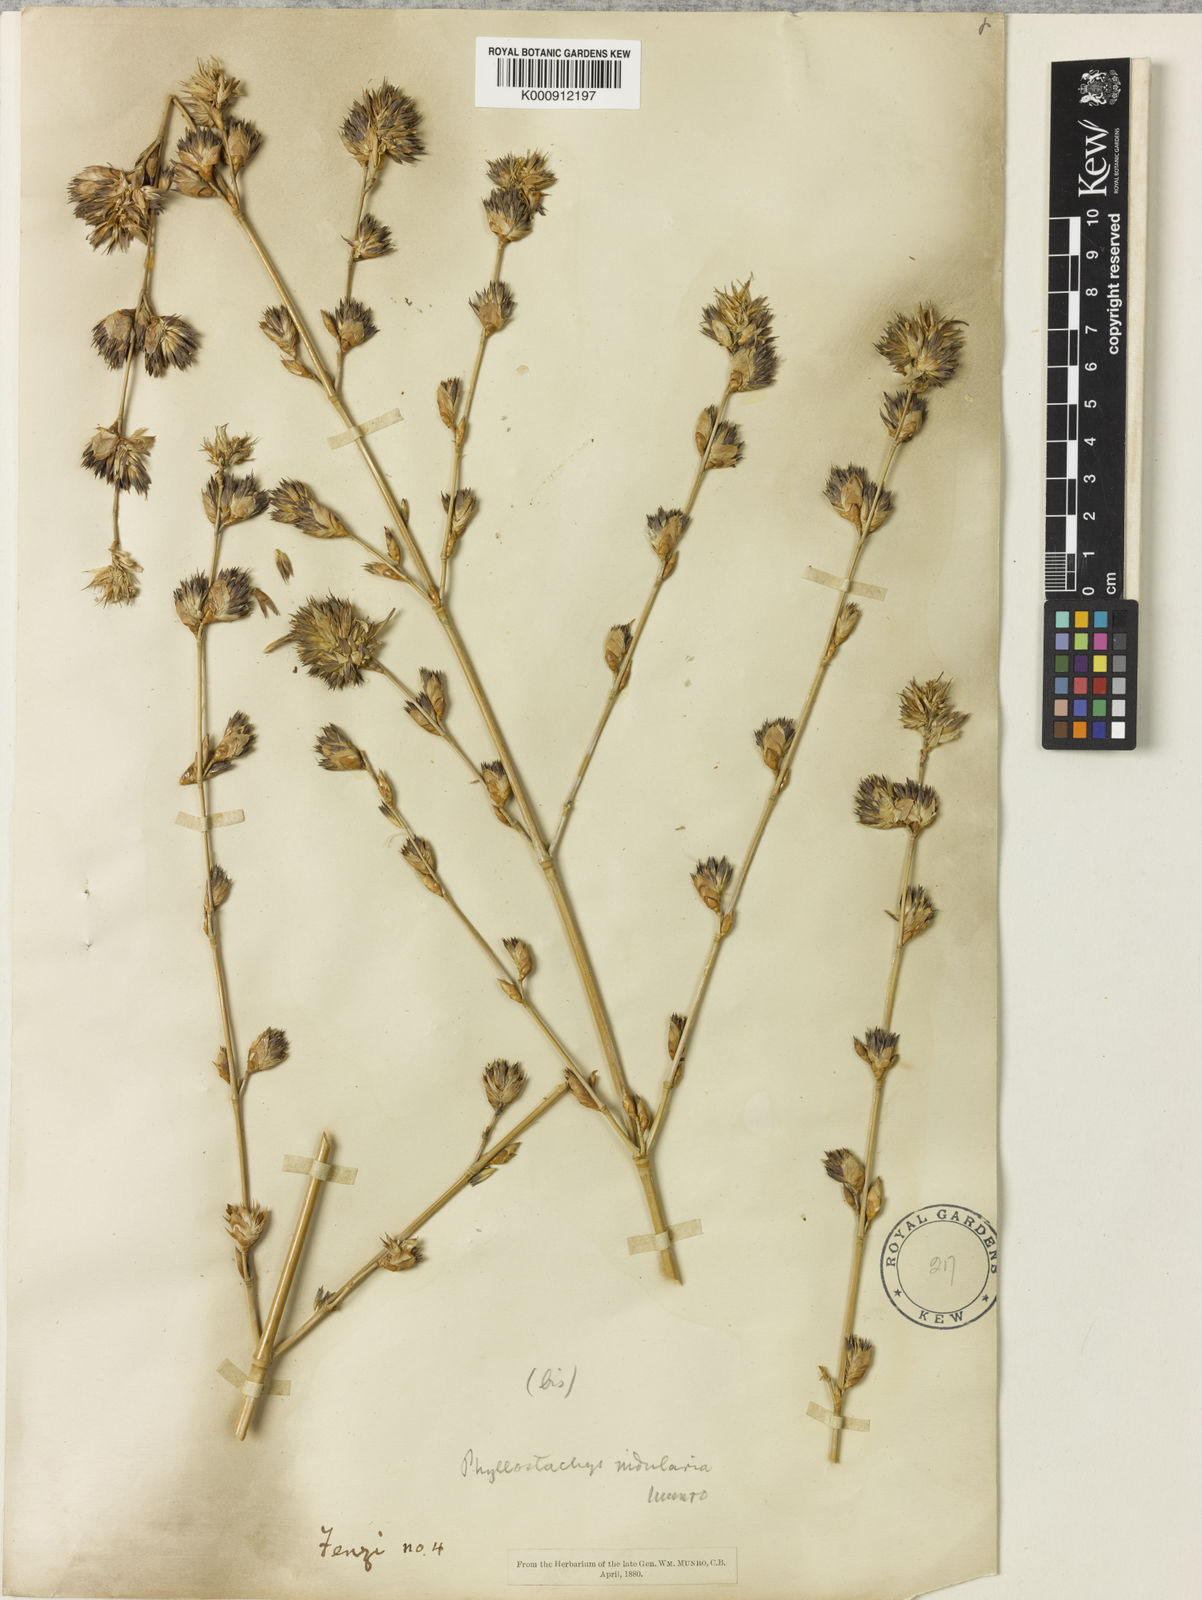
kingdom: Plantae
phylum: Tracheophyta
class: Liliopsida
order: Poales
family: Poaceae
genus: Phyllostachys
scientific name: Phyllostachys nidularia
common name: Broom bamboo
